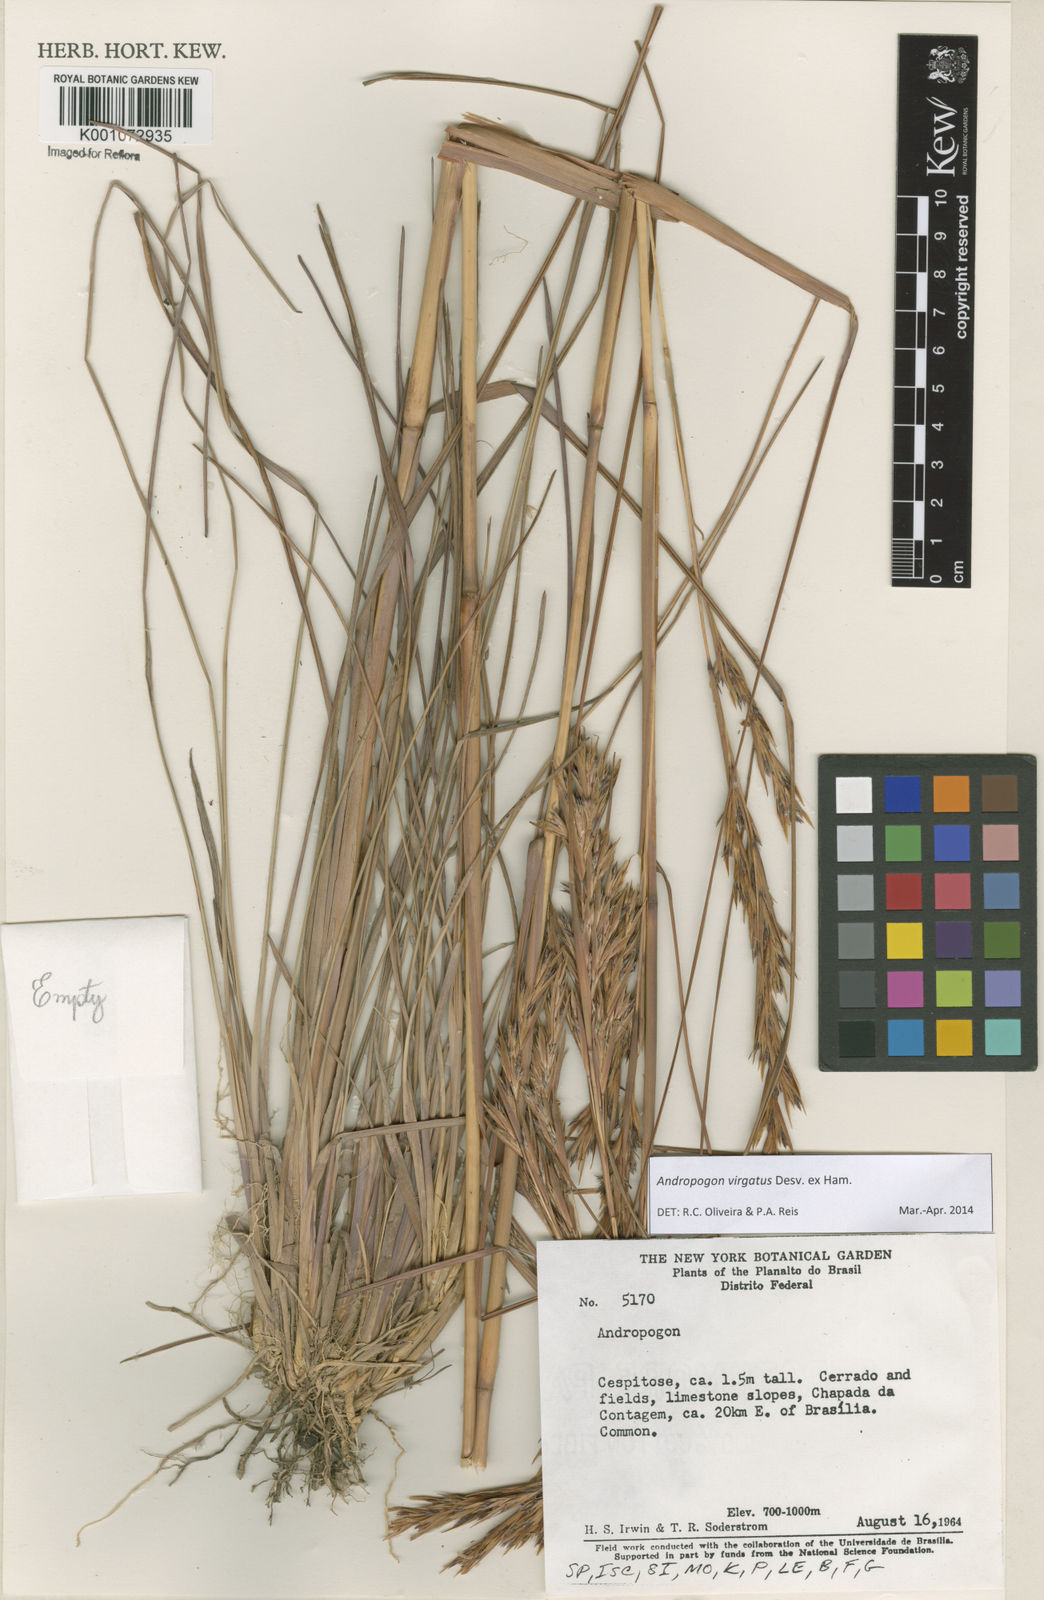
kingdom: Plantae
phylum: Tracheophyta
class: Liliopsida
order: Poales
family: Poaceae
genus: Andropogon
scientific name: Andropogon virgatus
